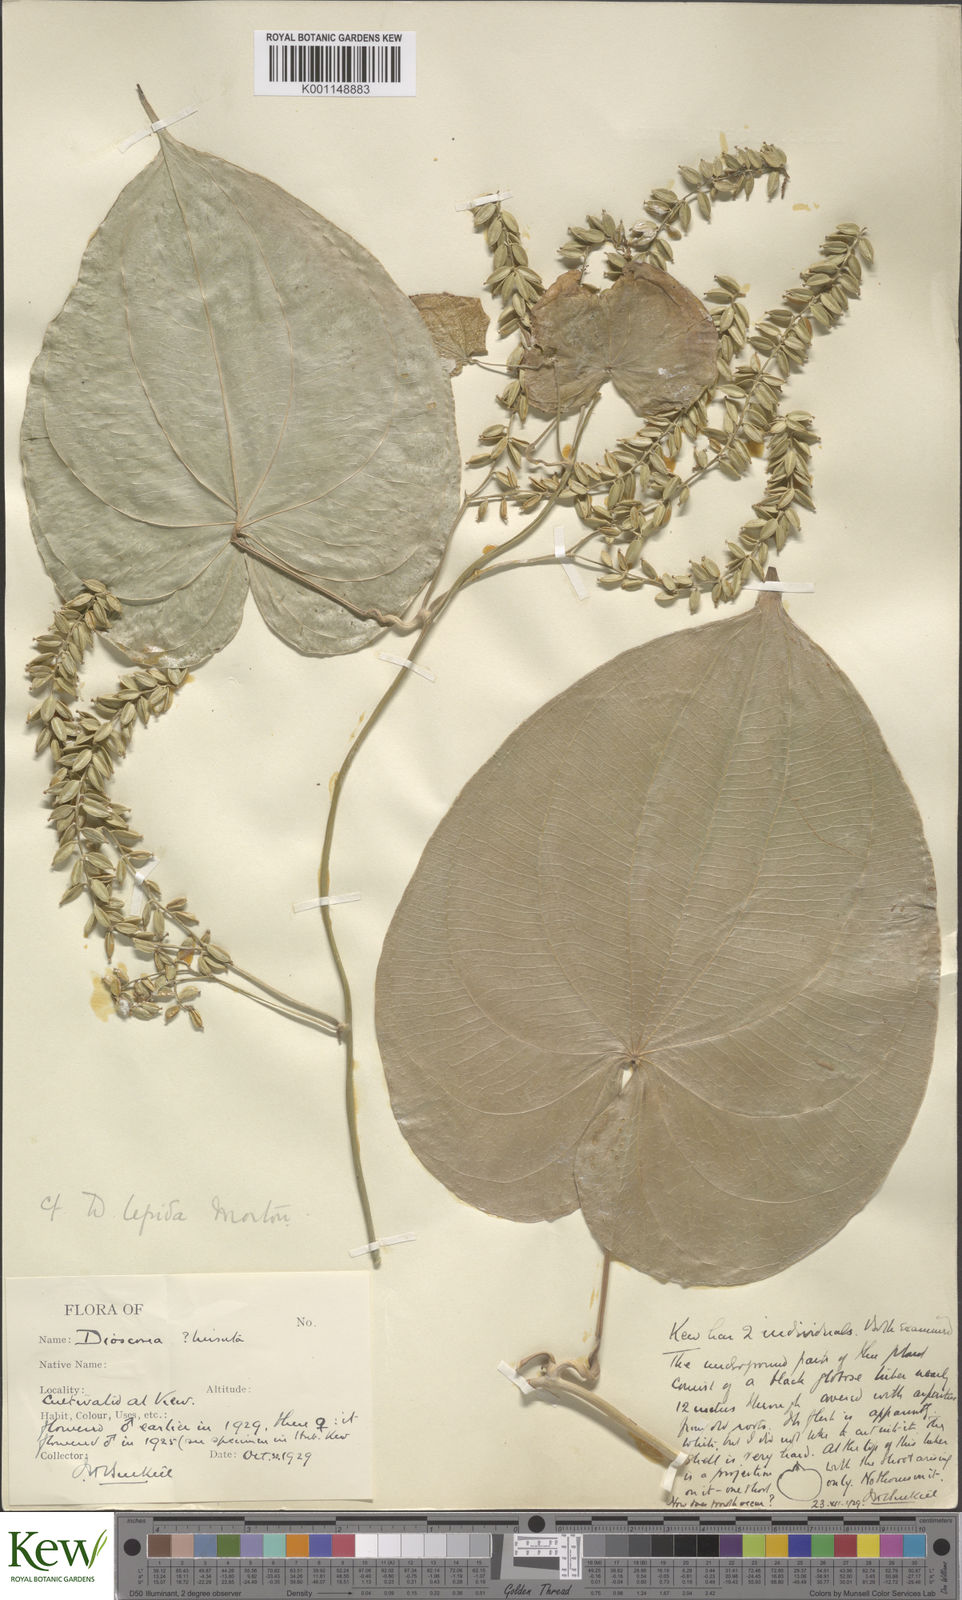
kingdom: Plantae
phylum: Tracheophyta
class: Liliopsida
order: Dioscoreales
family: Dioscoreaceae
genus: Dioscorea
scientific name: Dioscorea lepida
